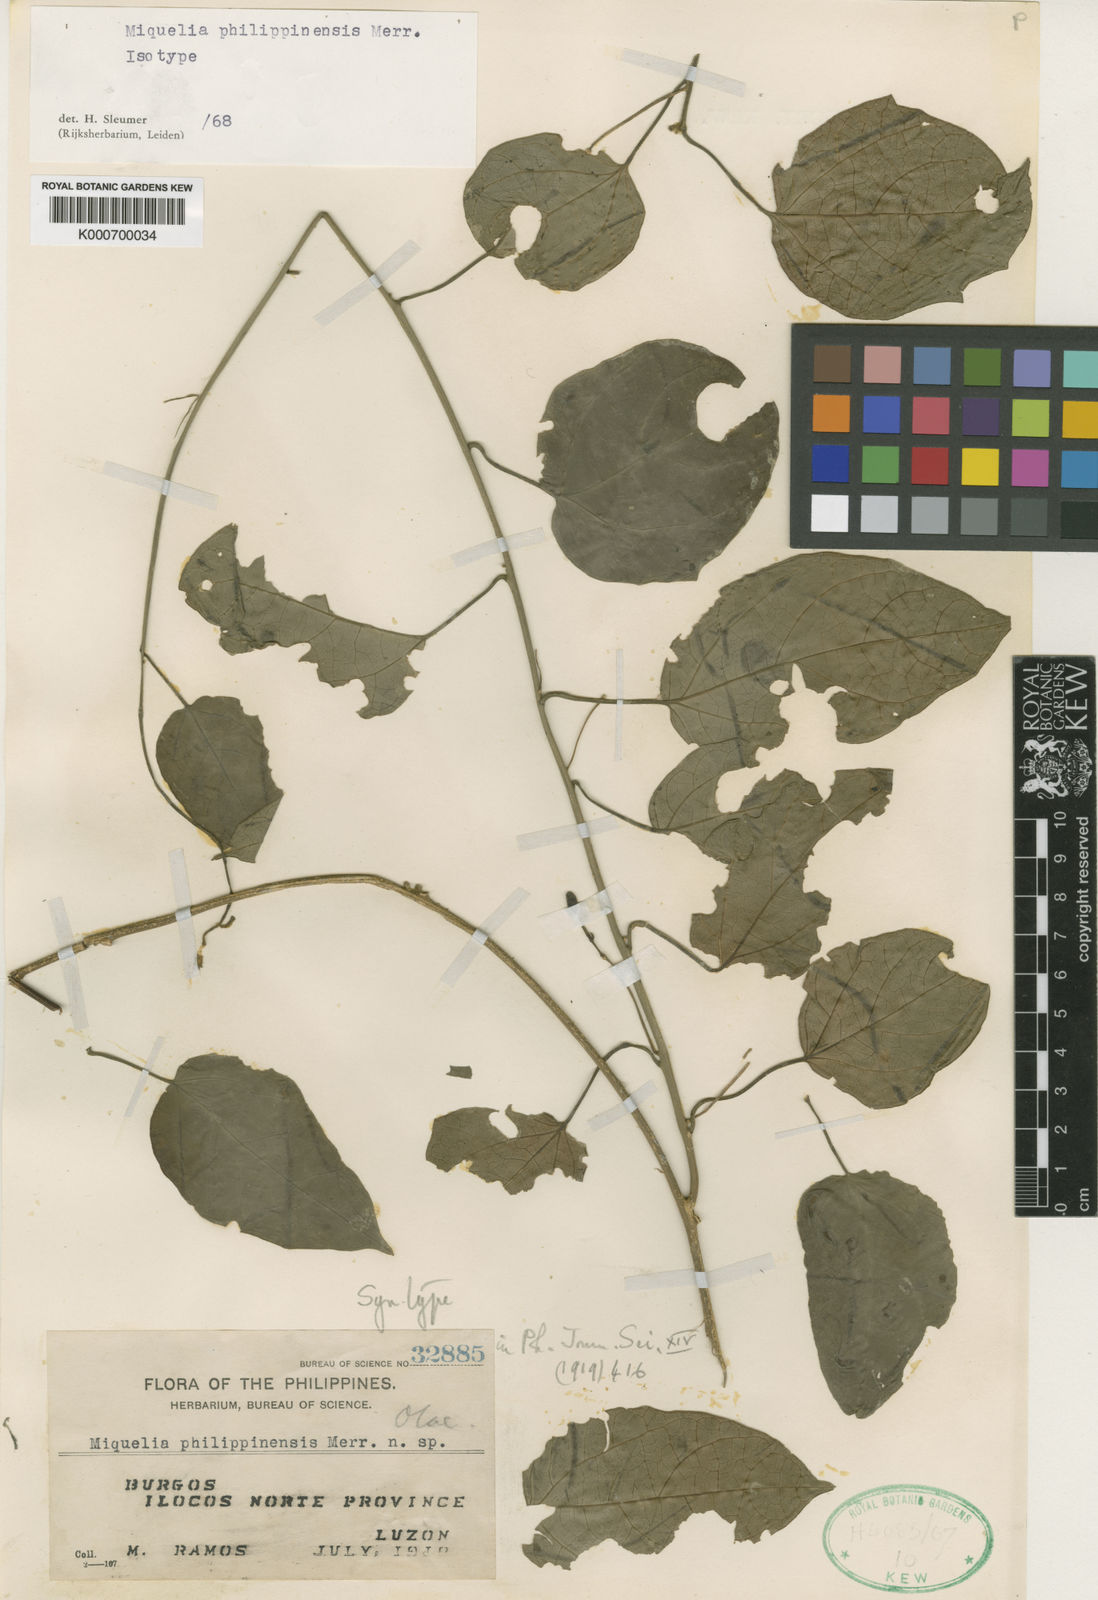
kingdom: Plantae
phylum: Tracheophyta
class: Magnoliopsida
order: Icacinales
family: Icacinaceae
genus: Miquelia
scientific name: Miquelia philippinensis
